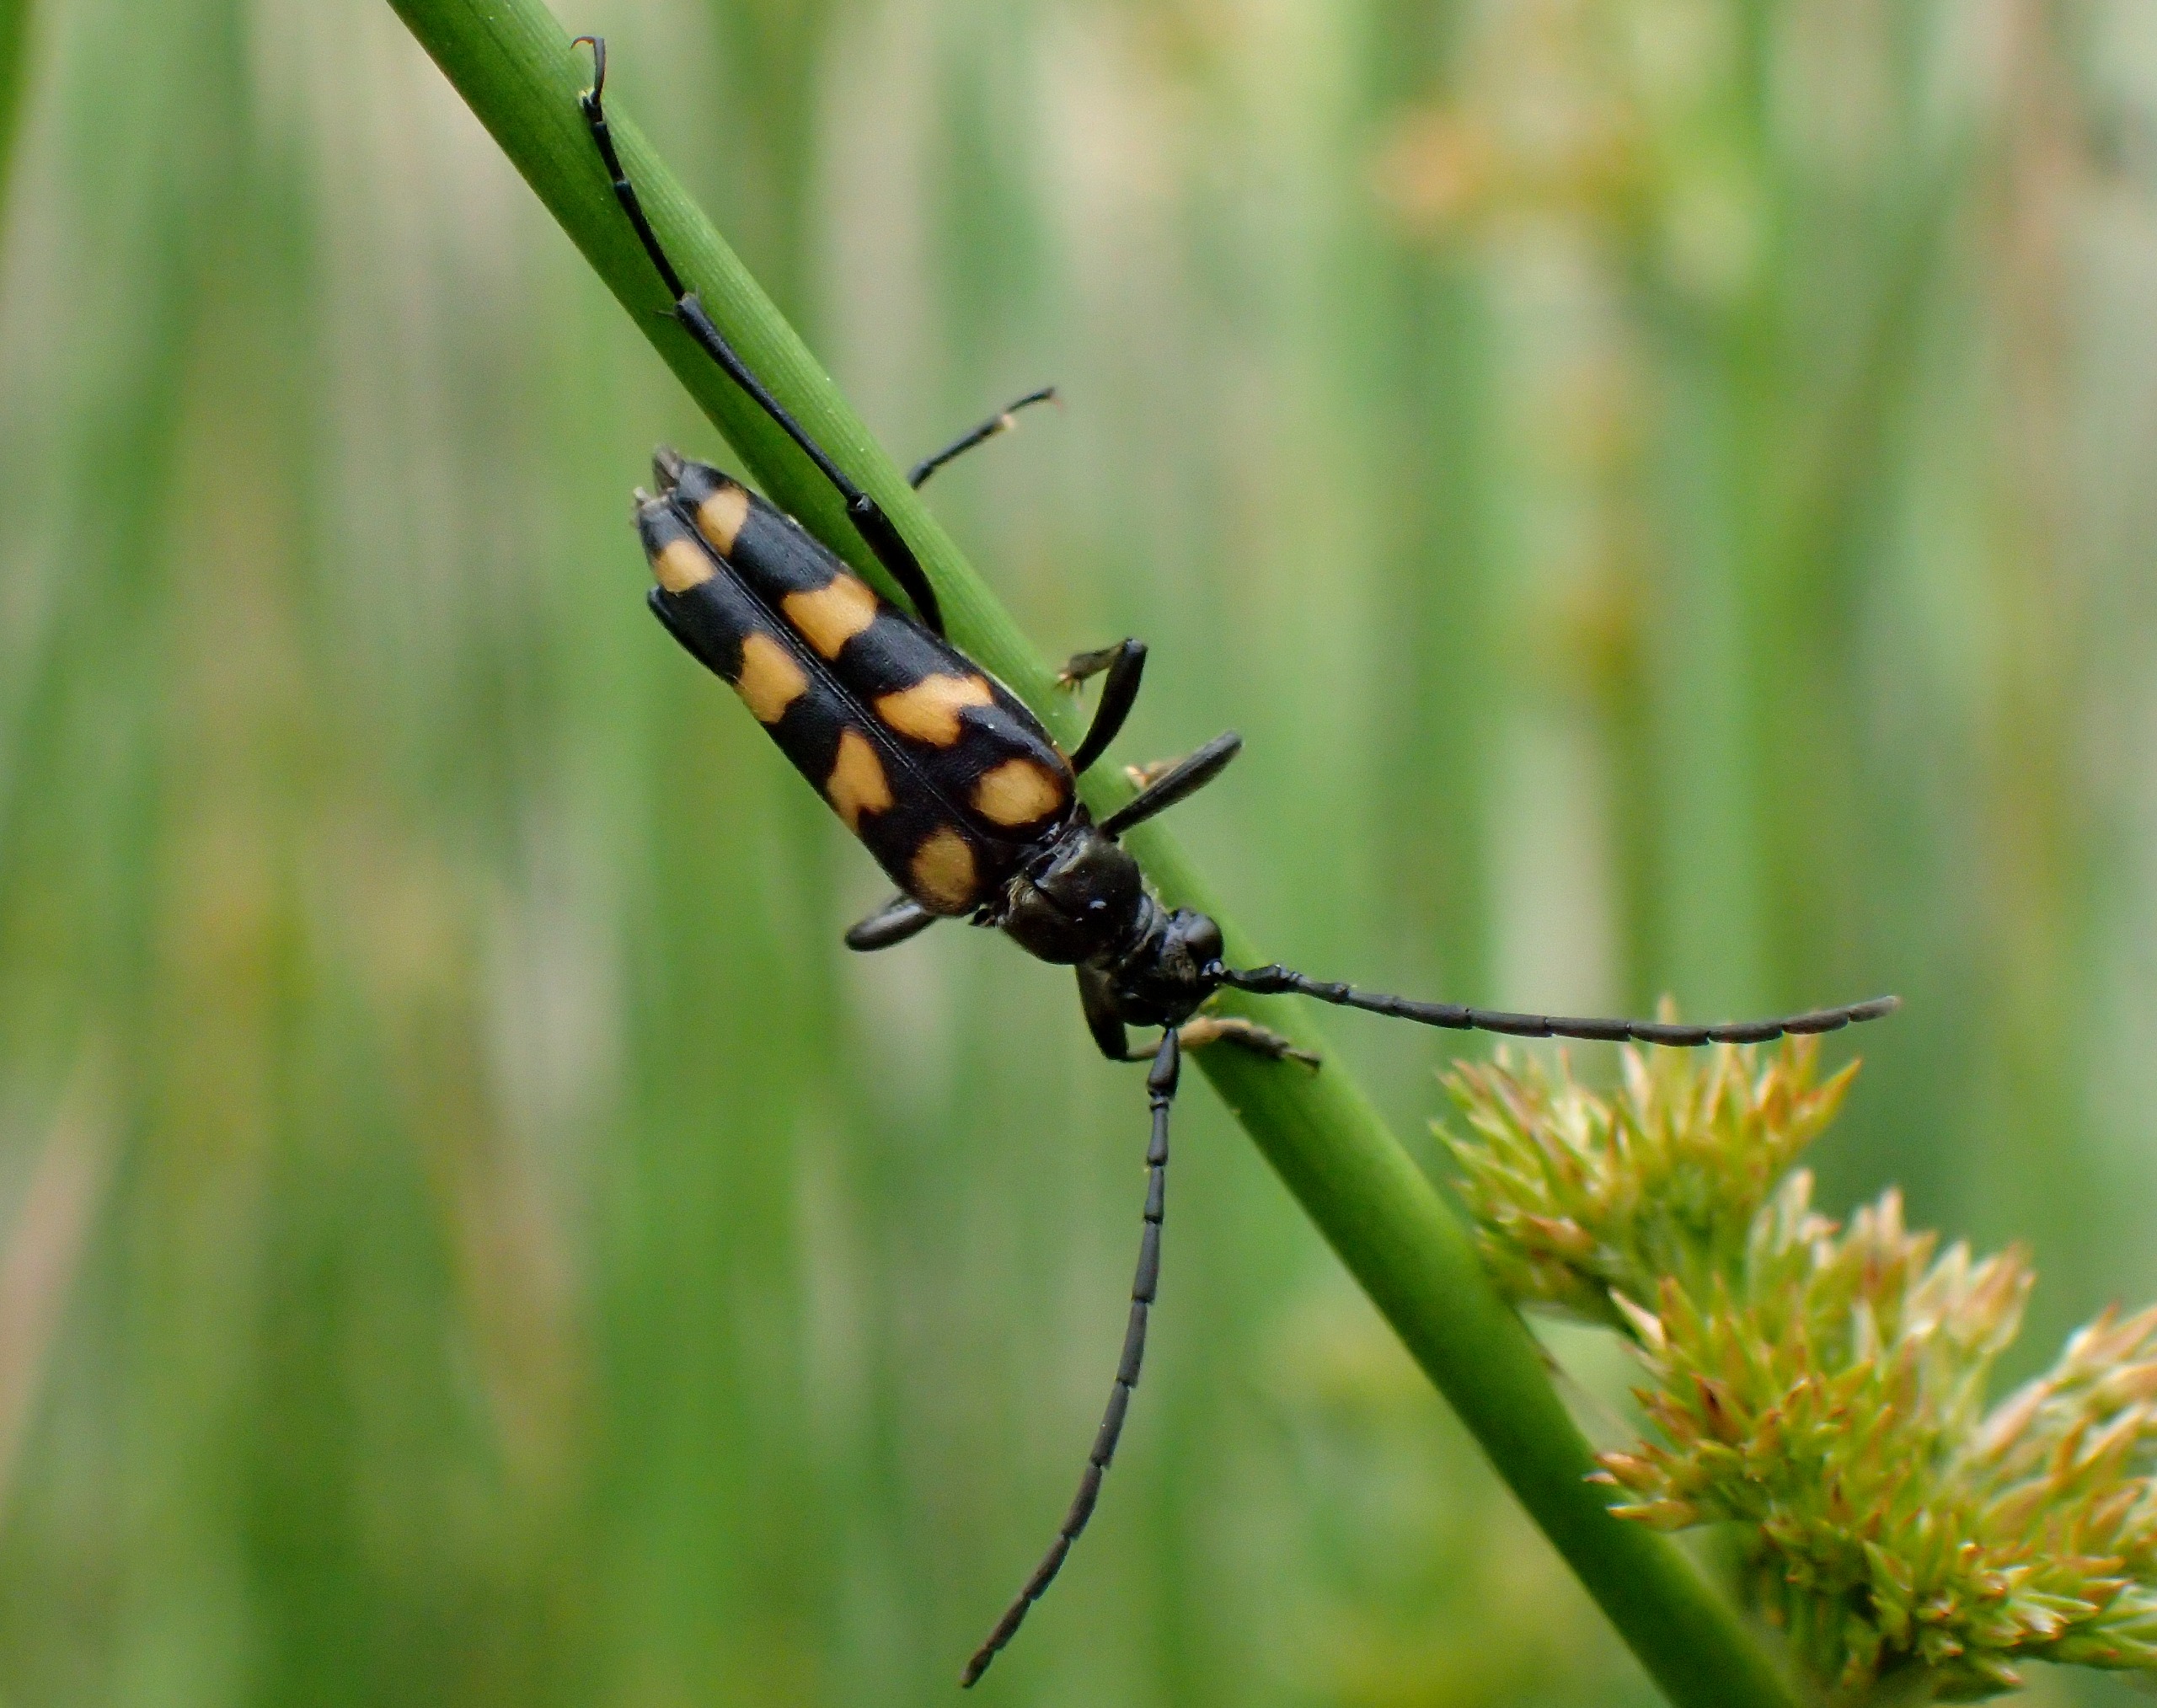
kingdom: Animalia
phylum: Arthropoda
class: Insecta
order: Coleoptera
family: Cerambycidae
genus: Leptura
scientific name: Leptura quadrifasciata
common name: Firebåndet blomsterbuk
